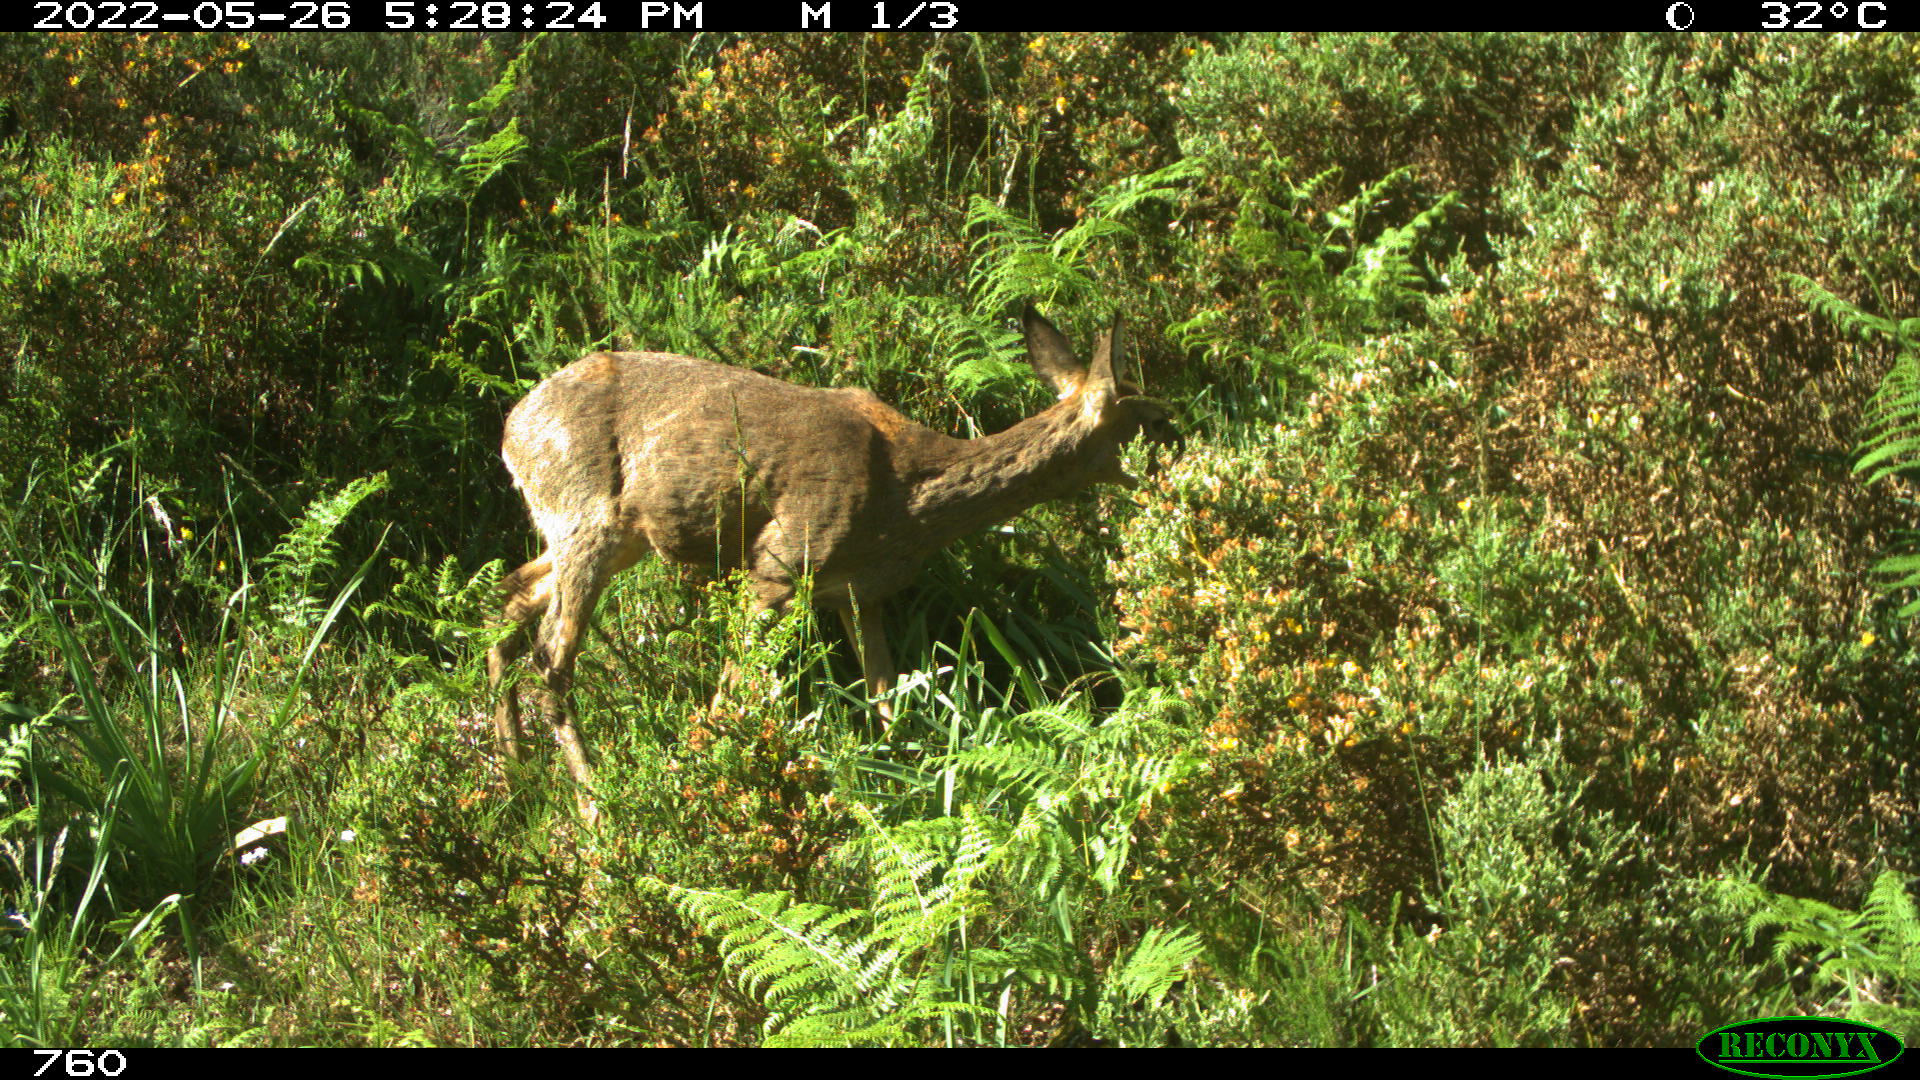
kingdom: Animalia
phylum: Chordata
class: Mammalia
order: Artiodactyla
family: Cervidae
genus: Capreolus
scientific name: Capreolus capreolus
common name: Western roe deer
